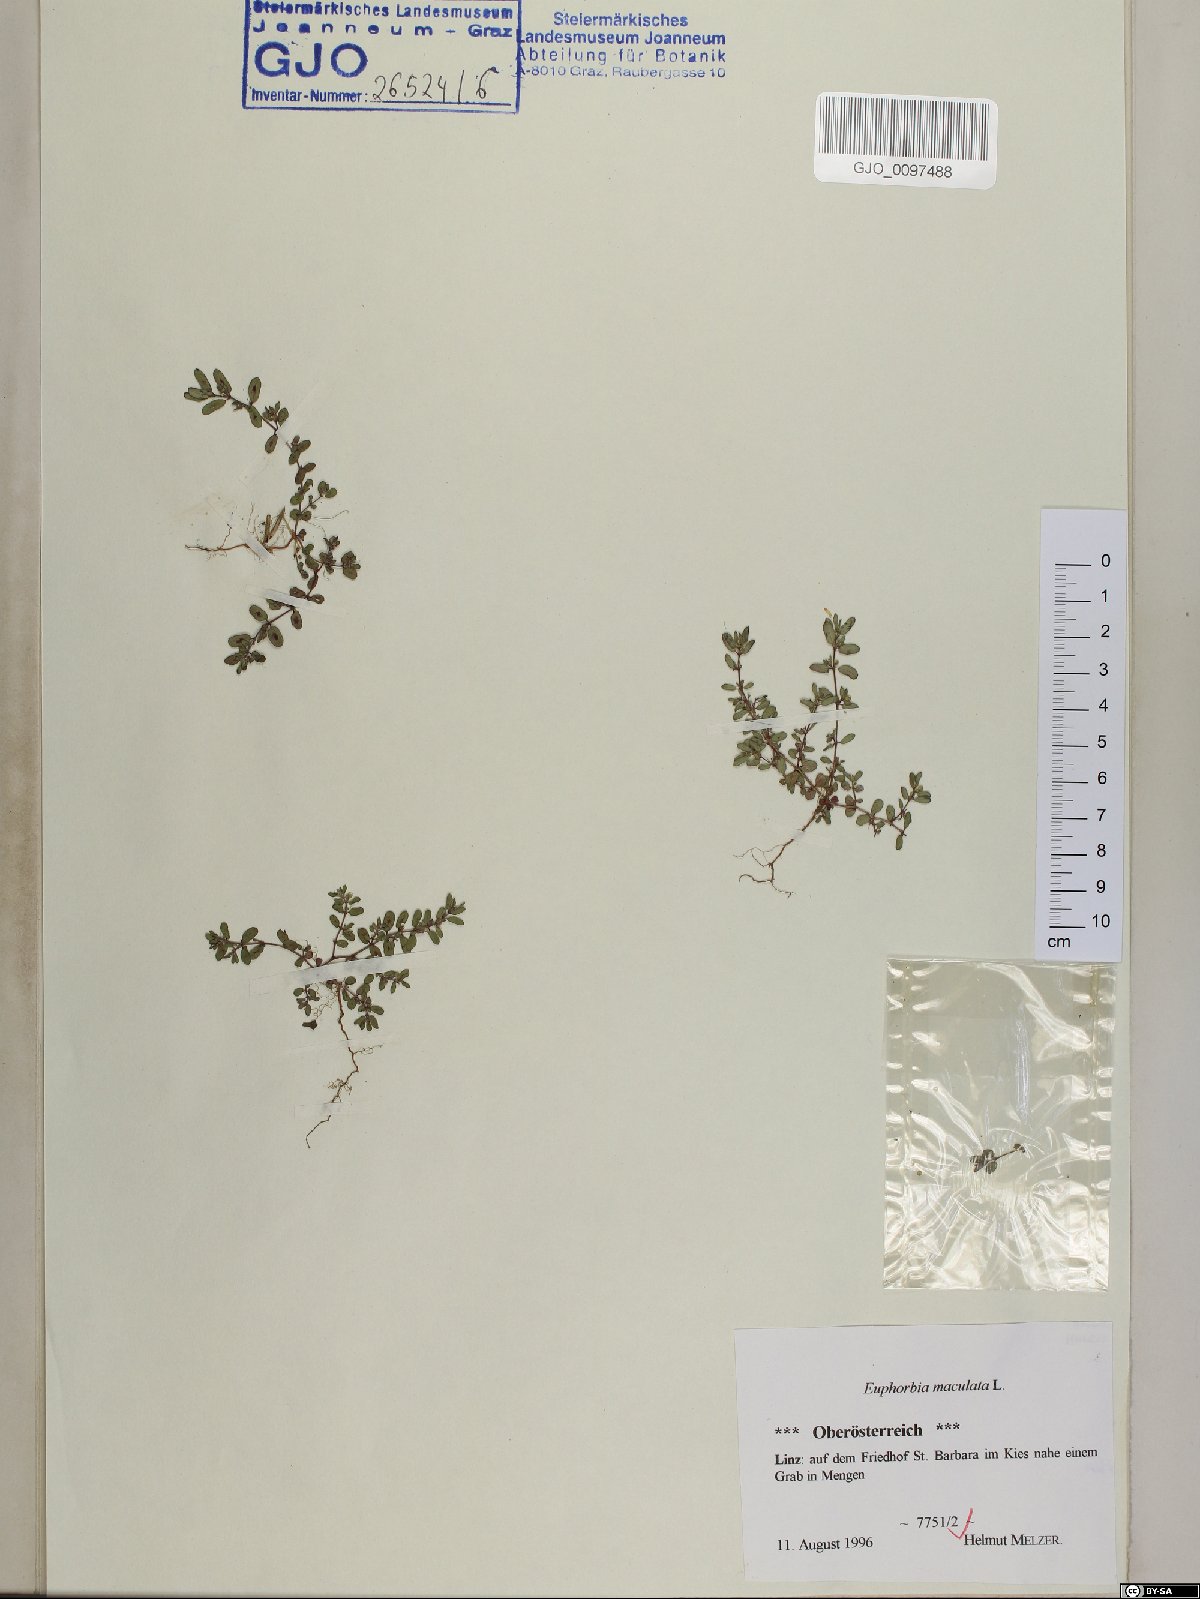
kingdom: Plantae
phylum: Tracheophyta
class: Magnoliopsida
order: Malpighiales
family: Euphorbiaceae
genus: Euphorbia
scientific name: Euphorbia maculata
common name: Spotted spurge
